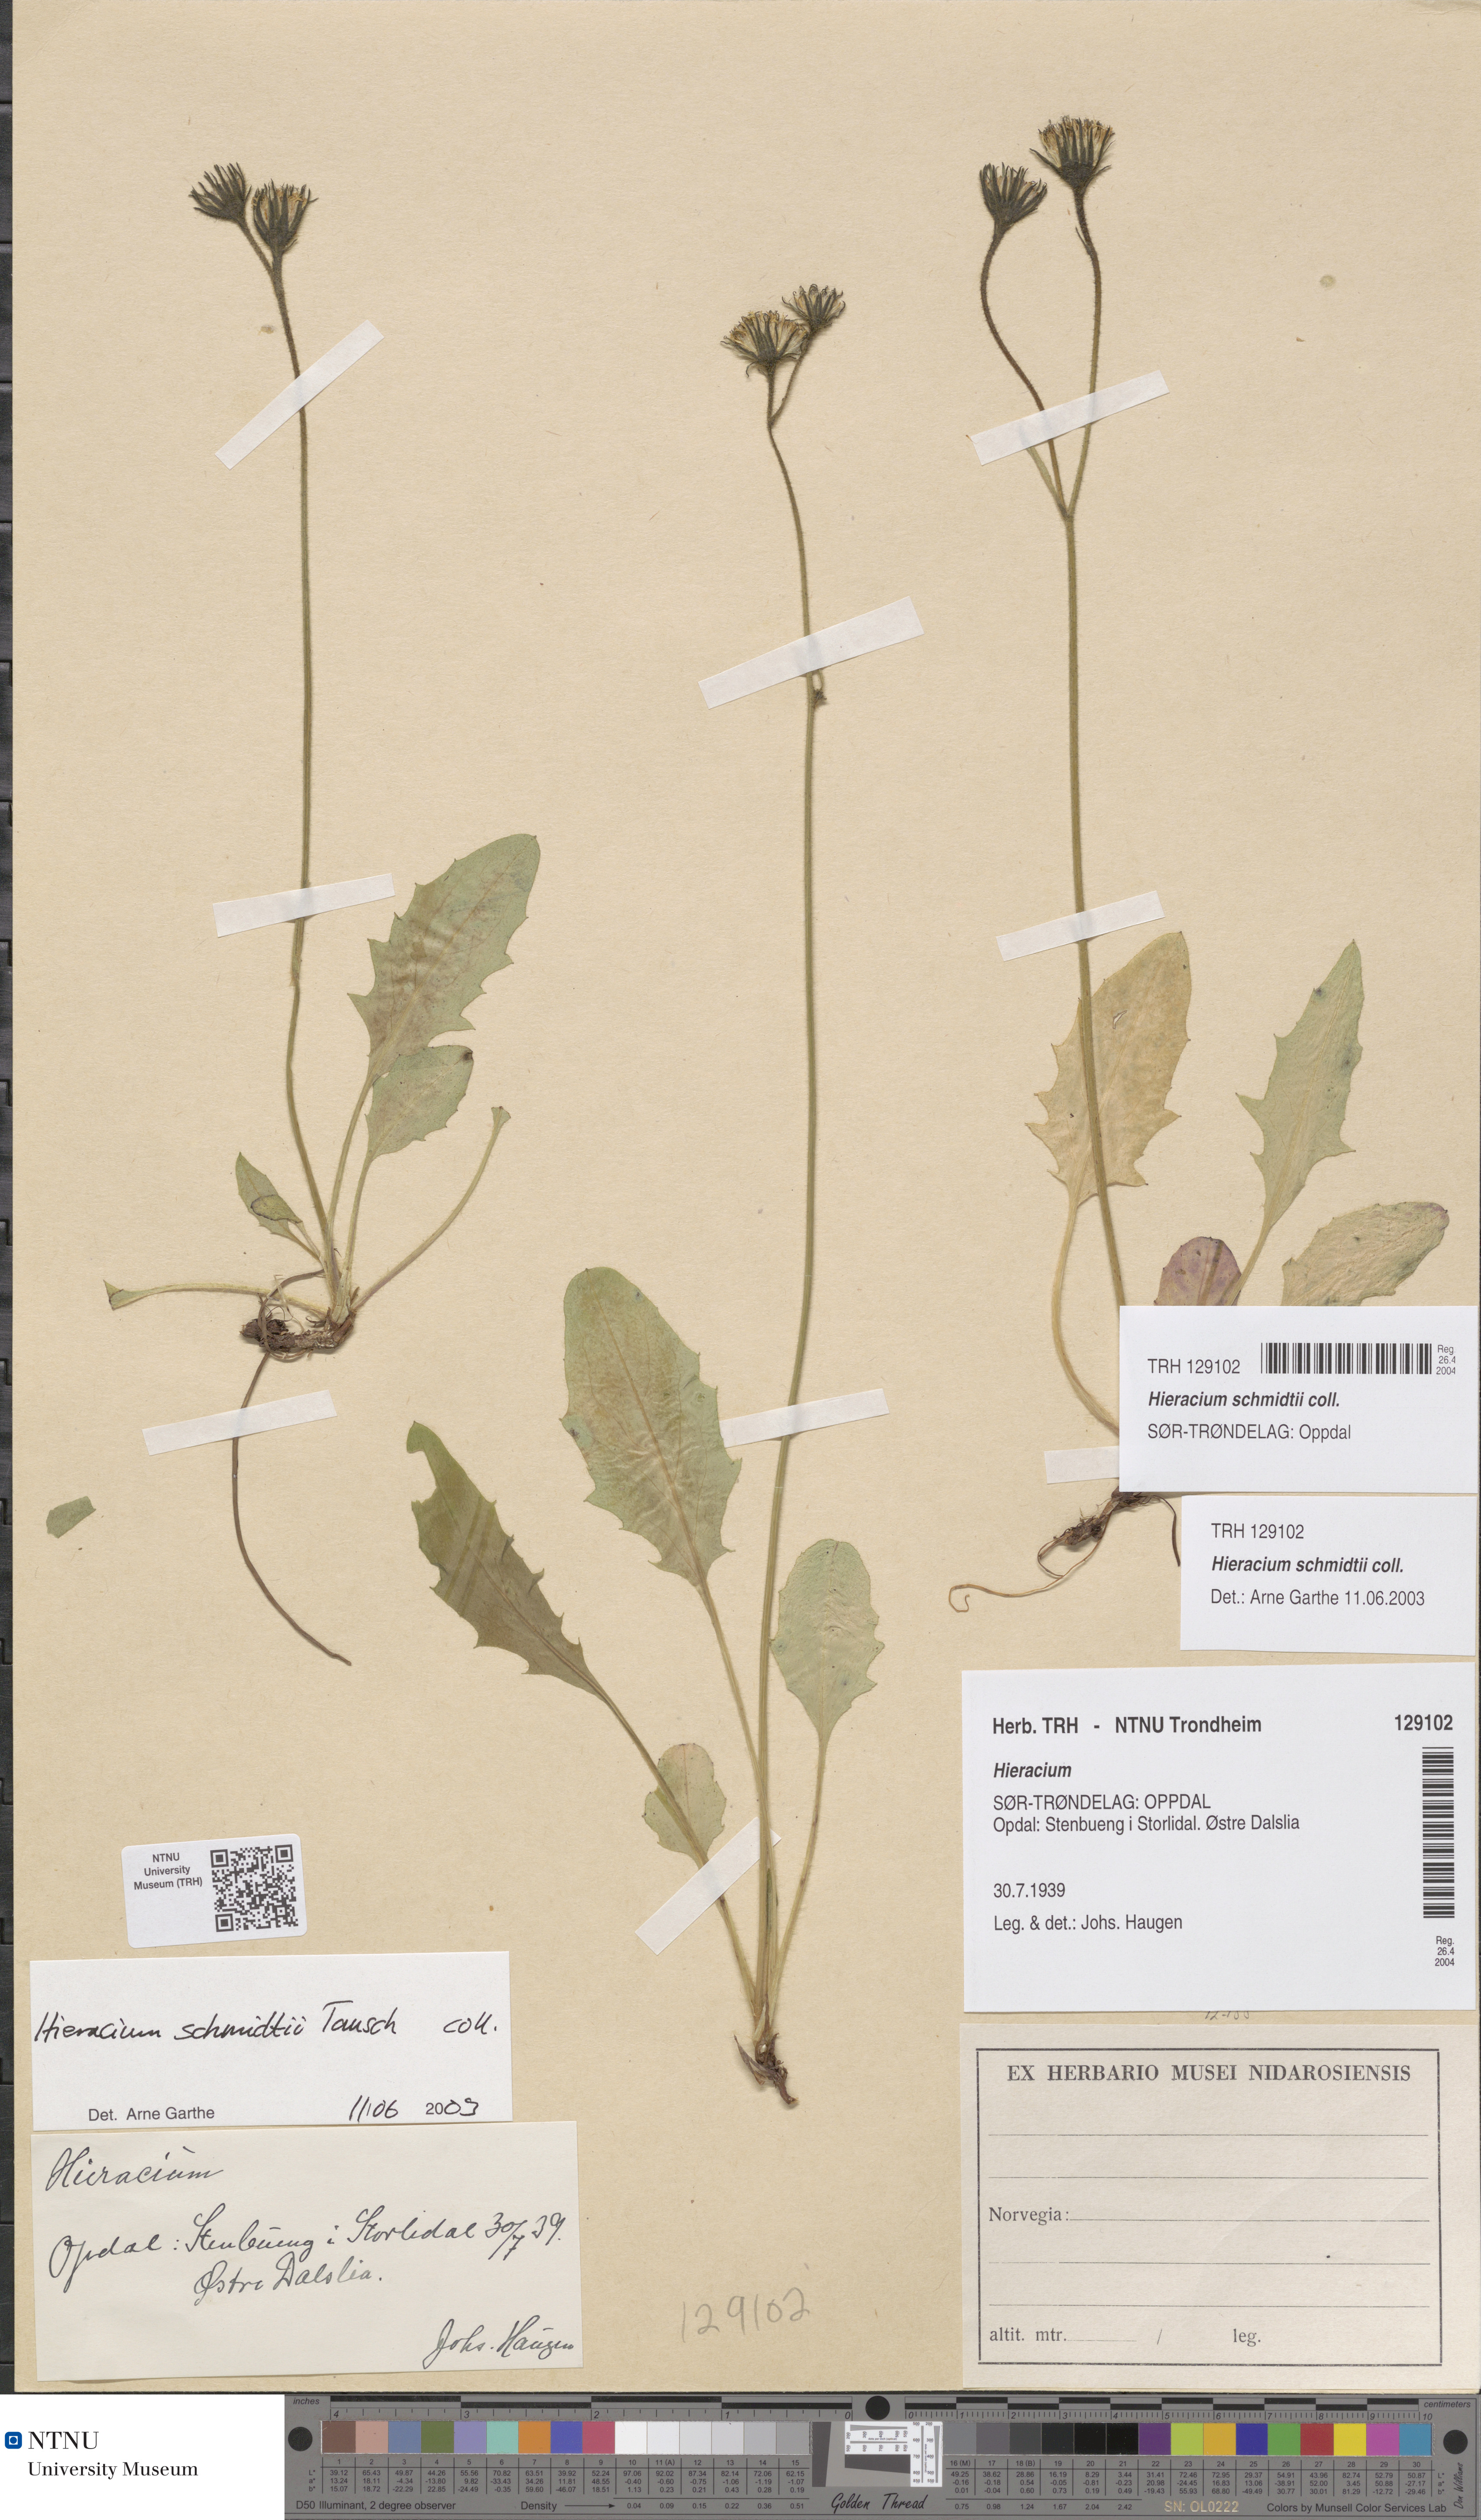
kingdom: Plantae
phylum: Tracheophyta
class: Magnoliopsida
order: Asterales
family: Asteraceae
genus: Hieracium
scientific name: Hieracium schmidtii
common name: Schmidt's hawkweed
